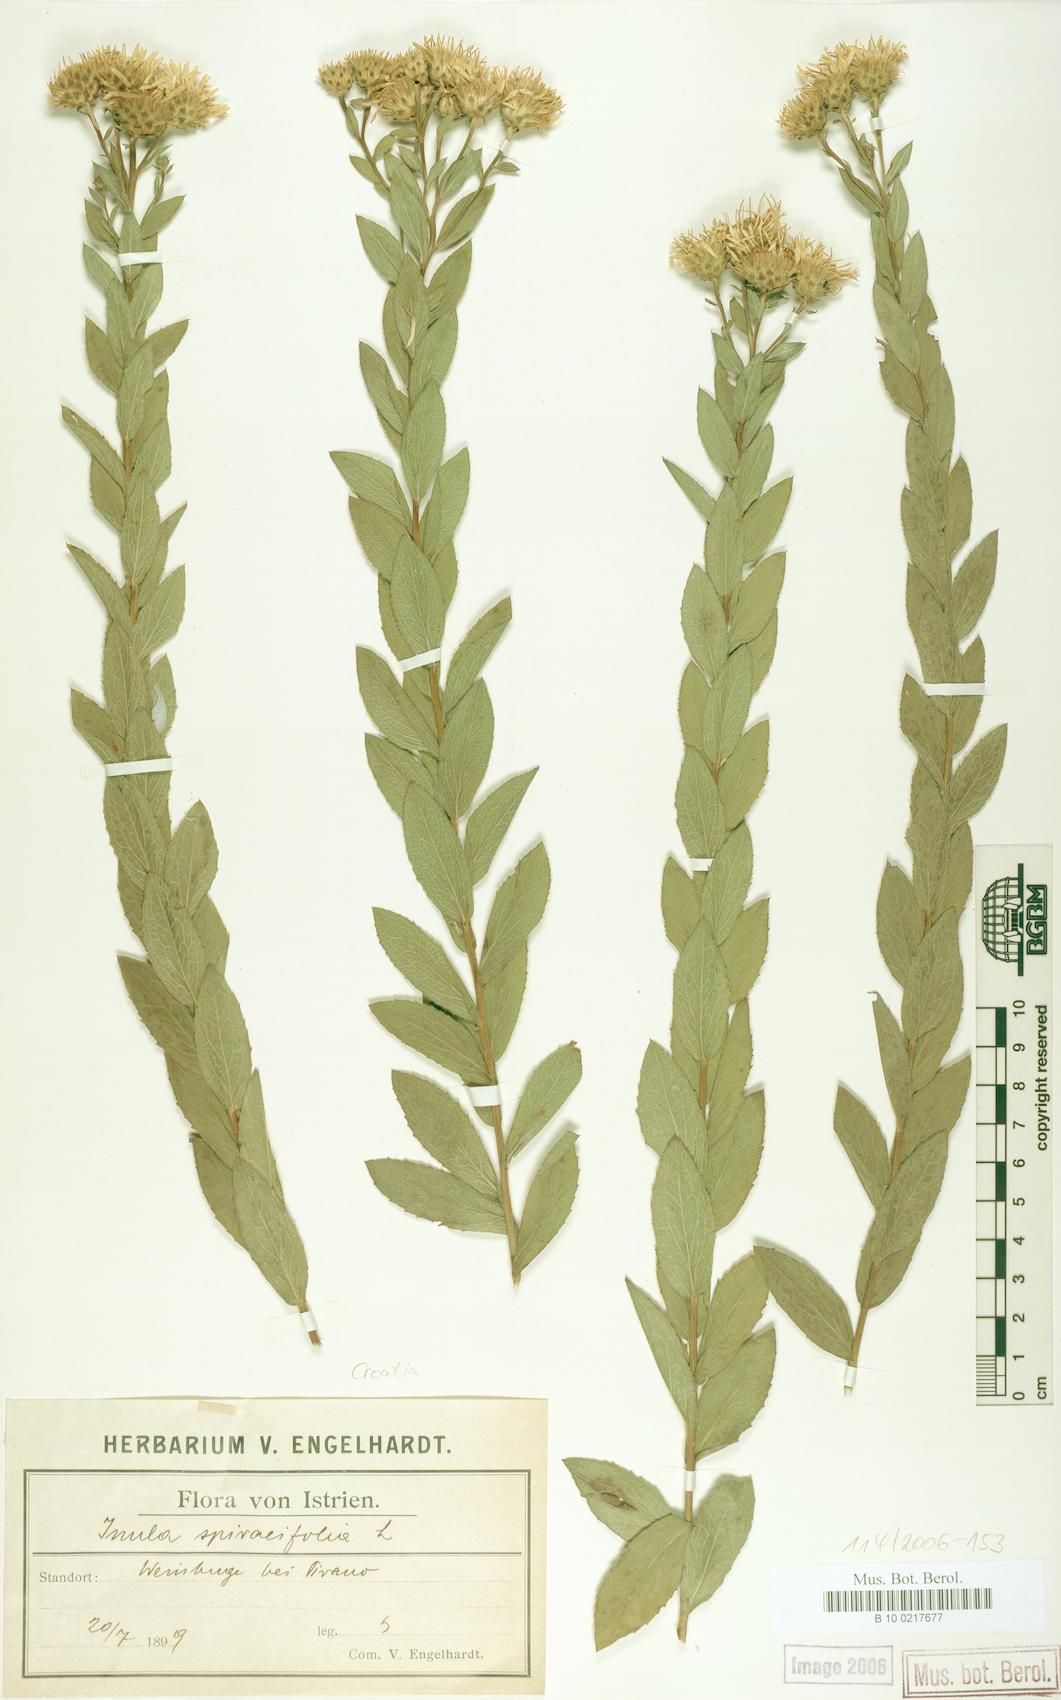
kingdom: Plantae
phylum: Tracheophyta
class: Magnoliopsida
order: Asterales
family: Asteraceae
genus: Pentanema
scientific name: Pentanema spiraeifolium
